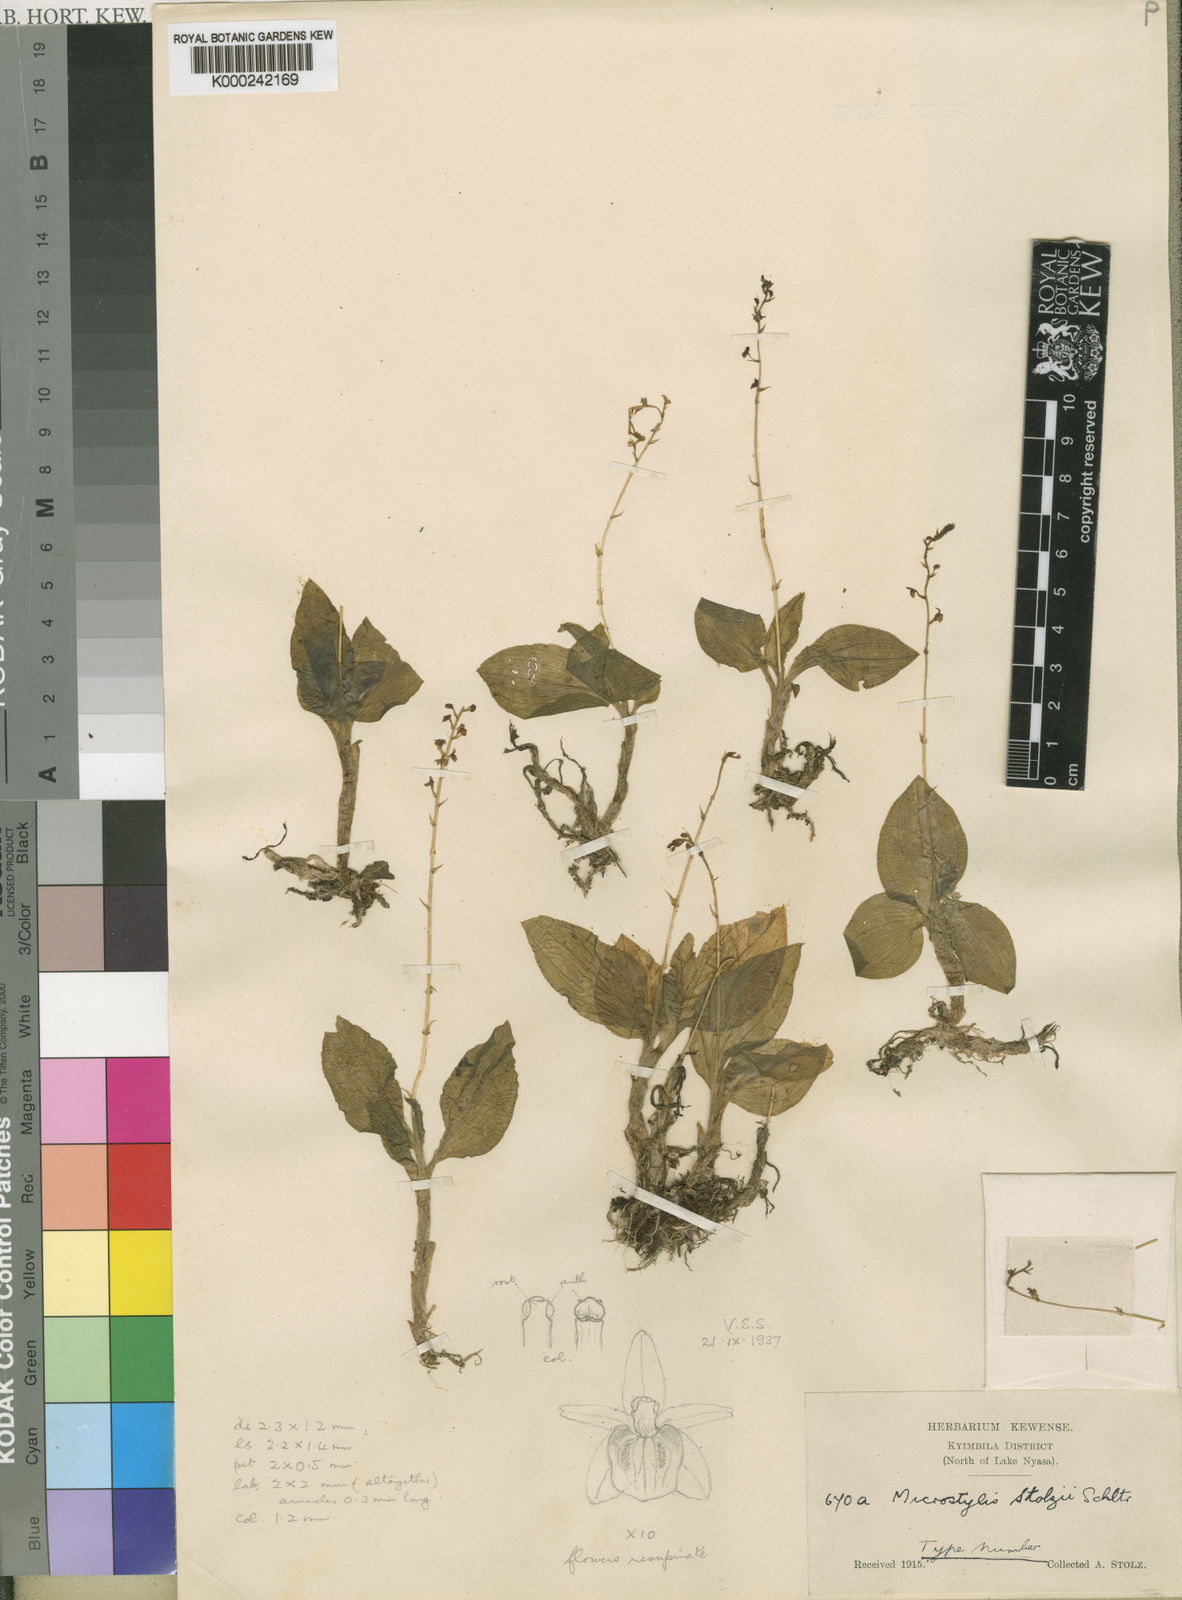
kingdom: Plantae
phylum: Tracheophyta
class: Liliopsida
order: Asparagales
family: Orchidaceae
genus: Malaxis
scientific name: Malaxis weberbaueriana
